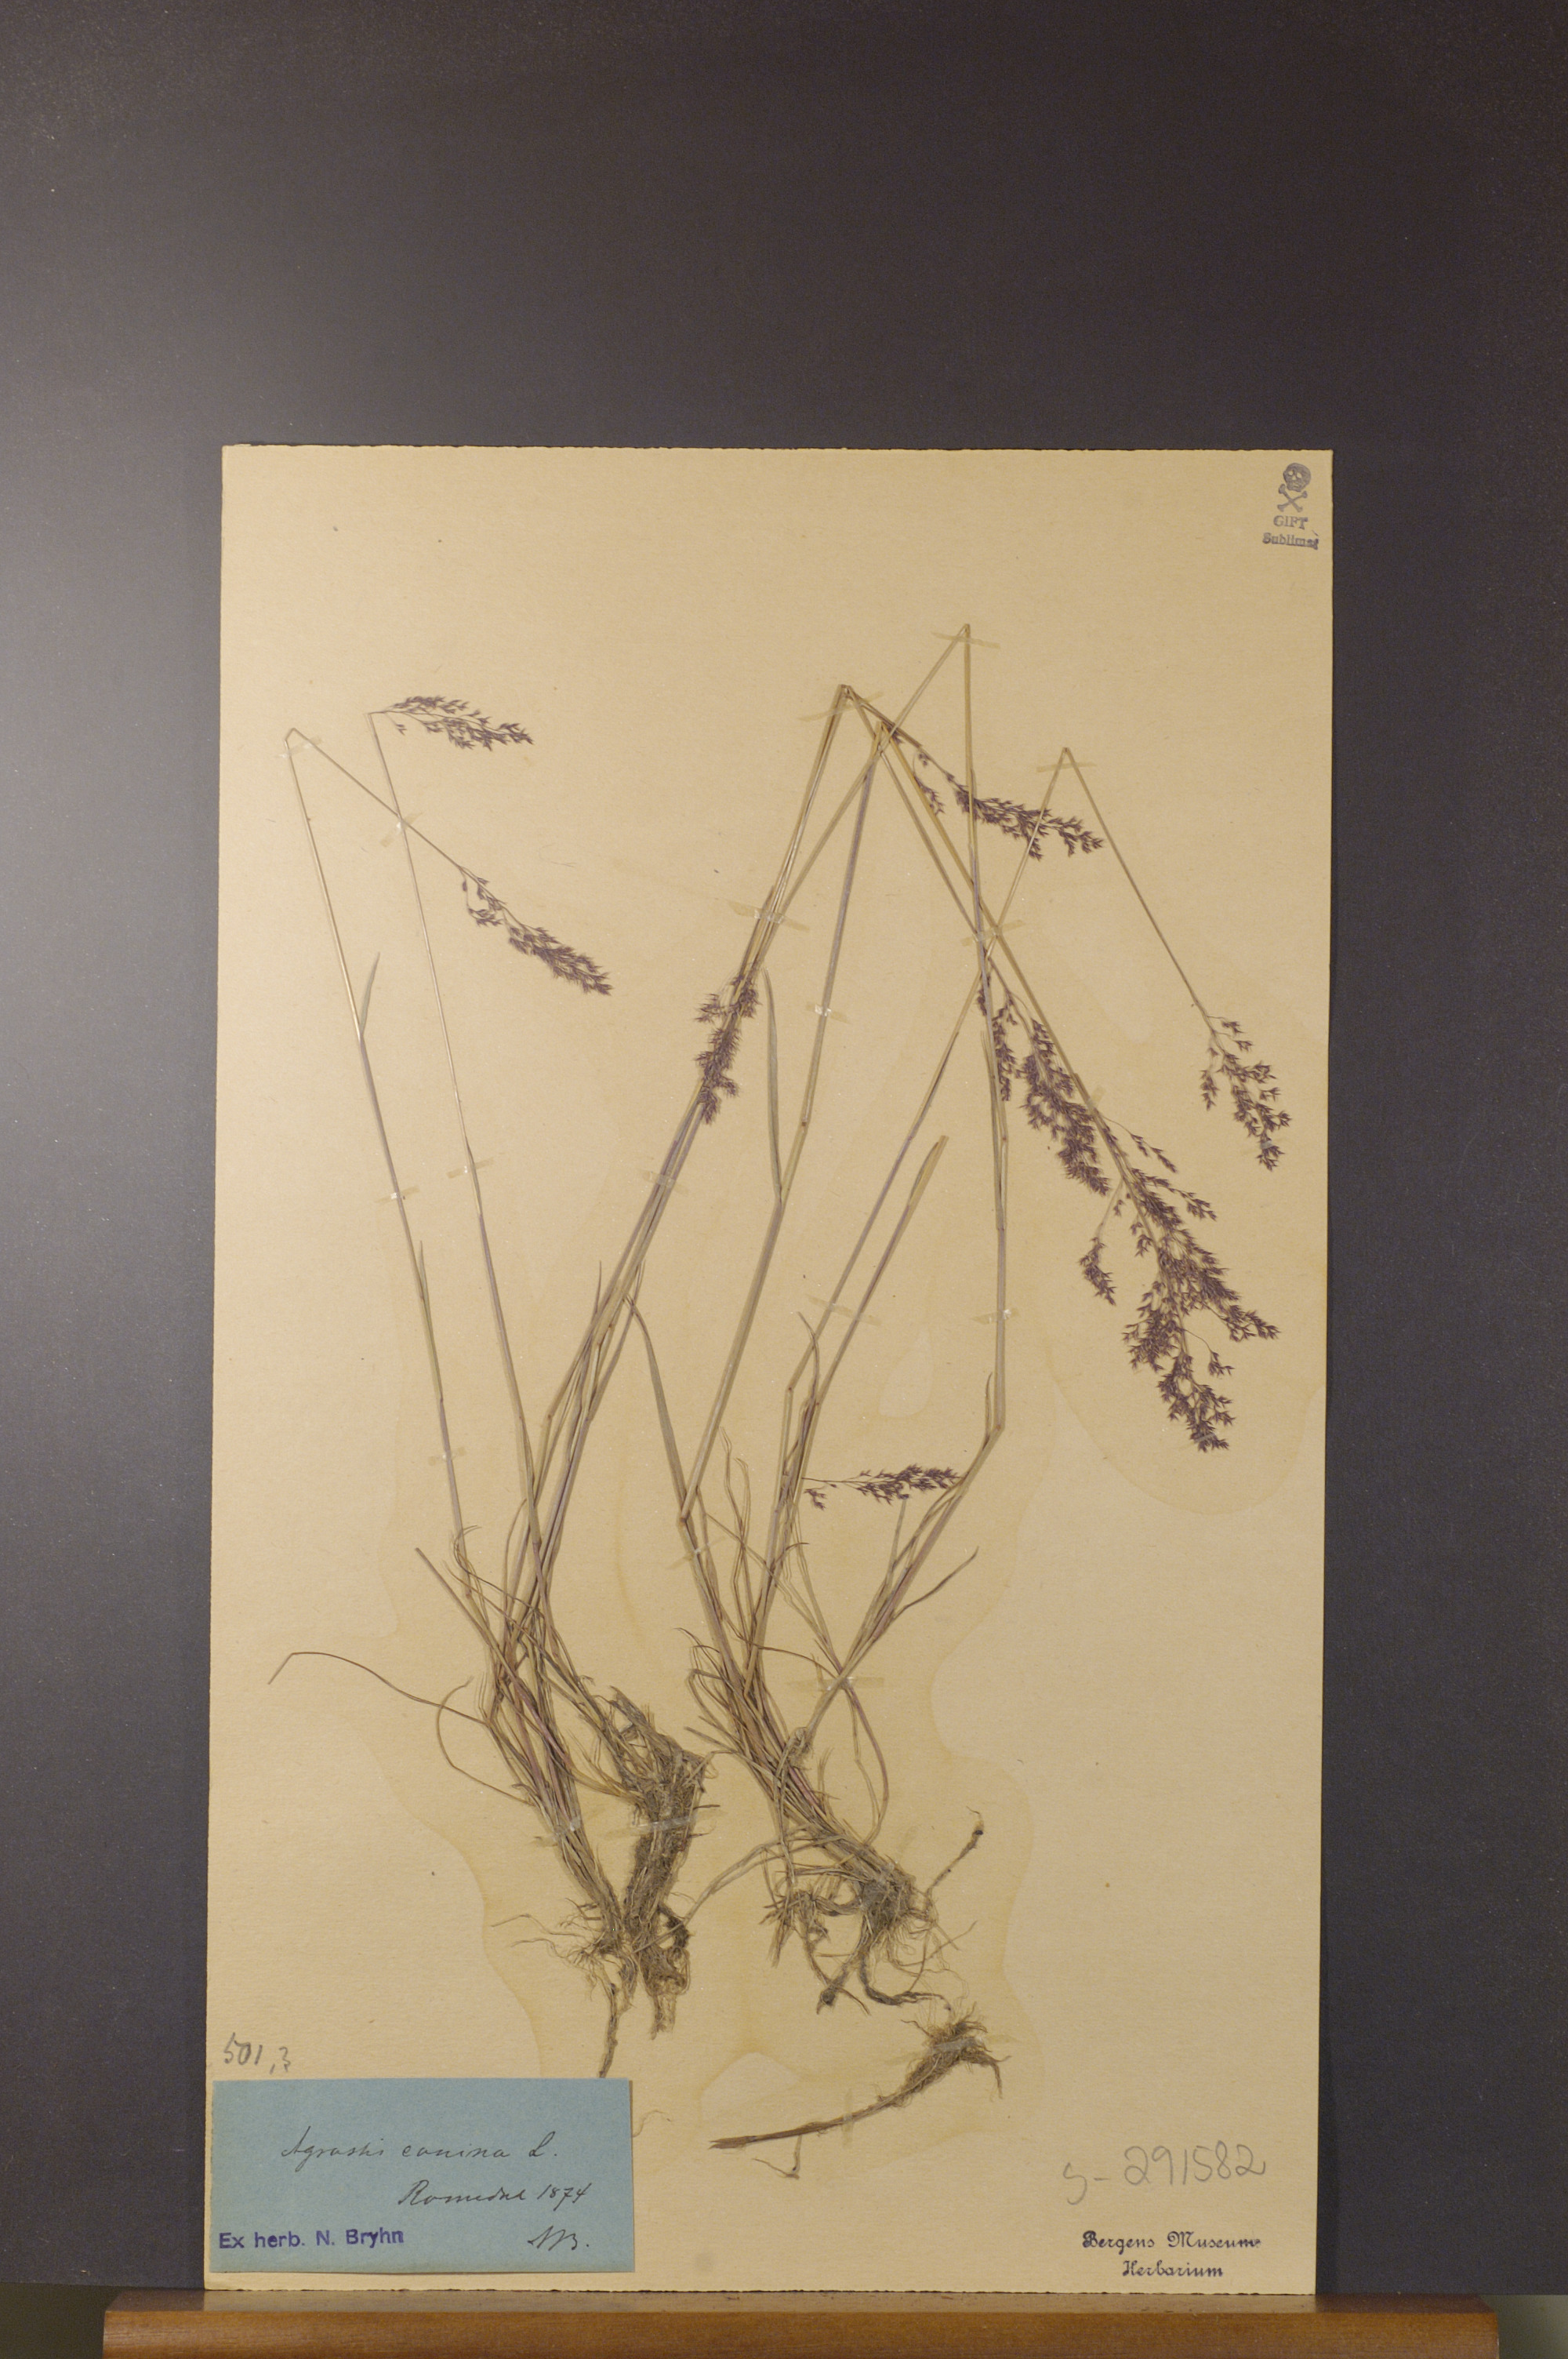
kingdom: Plantae
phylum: Tracheophyta
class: Liliopsida
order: Poales
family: Poaceae
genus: Agrostis
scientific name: Agrostis canina
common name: Velvet bent
